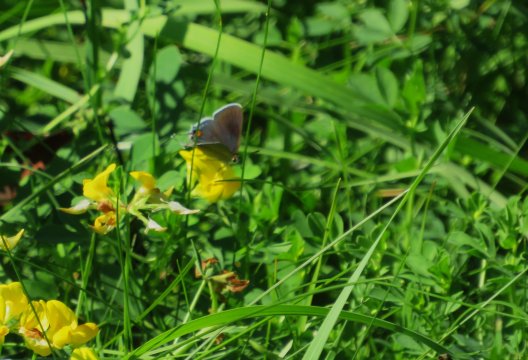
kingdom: Animalia
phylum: Arthropoda
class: Insecta
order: Lepidoptera
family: Lycaenidae
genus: Strymon
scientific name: Strymon melinus
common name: Gray Hairstreak
